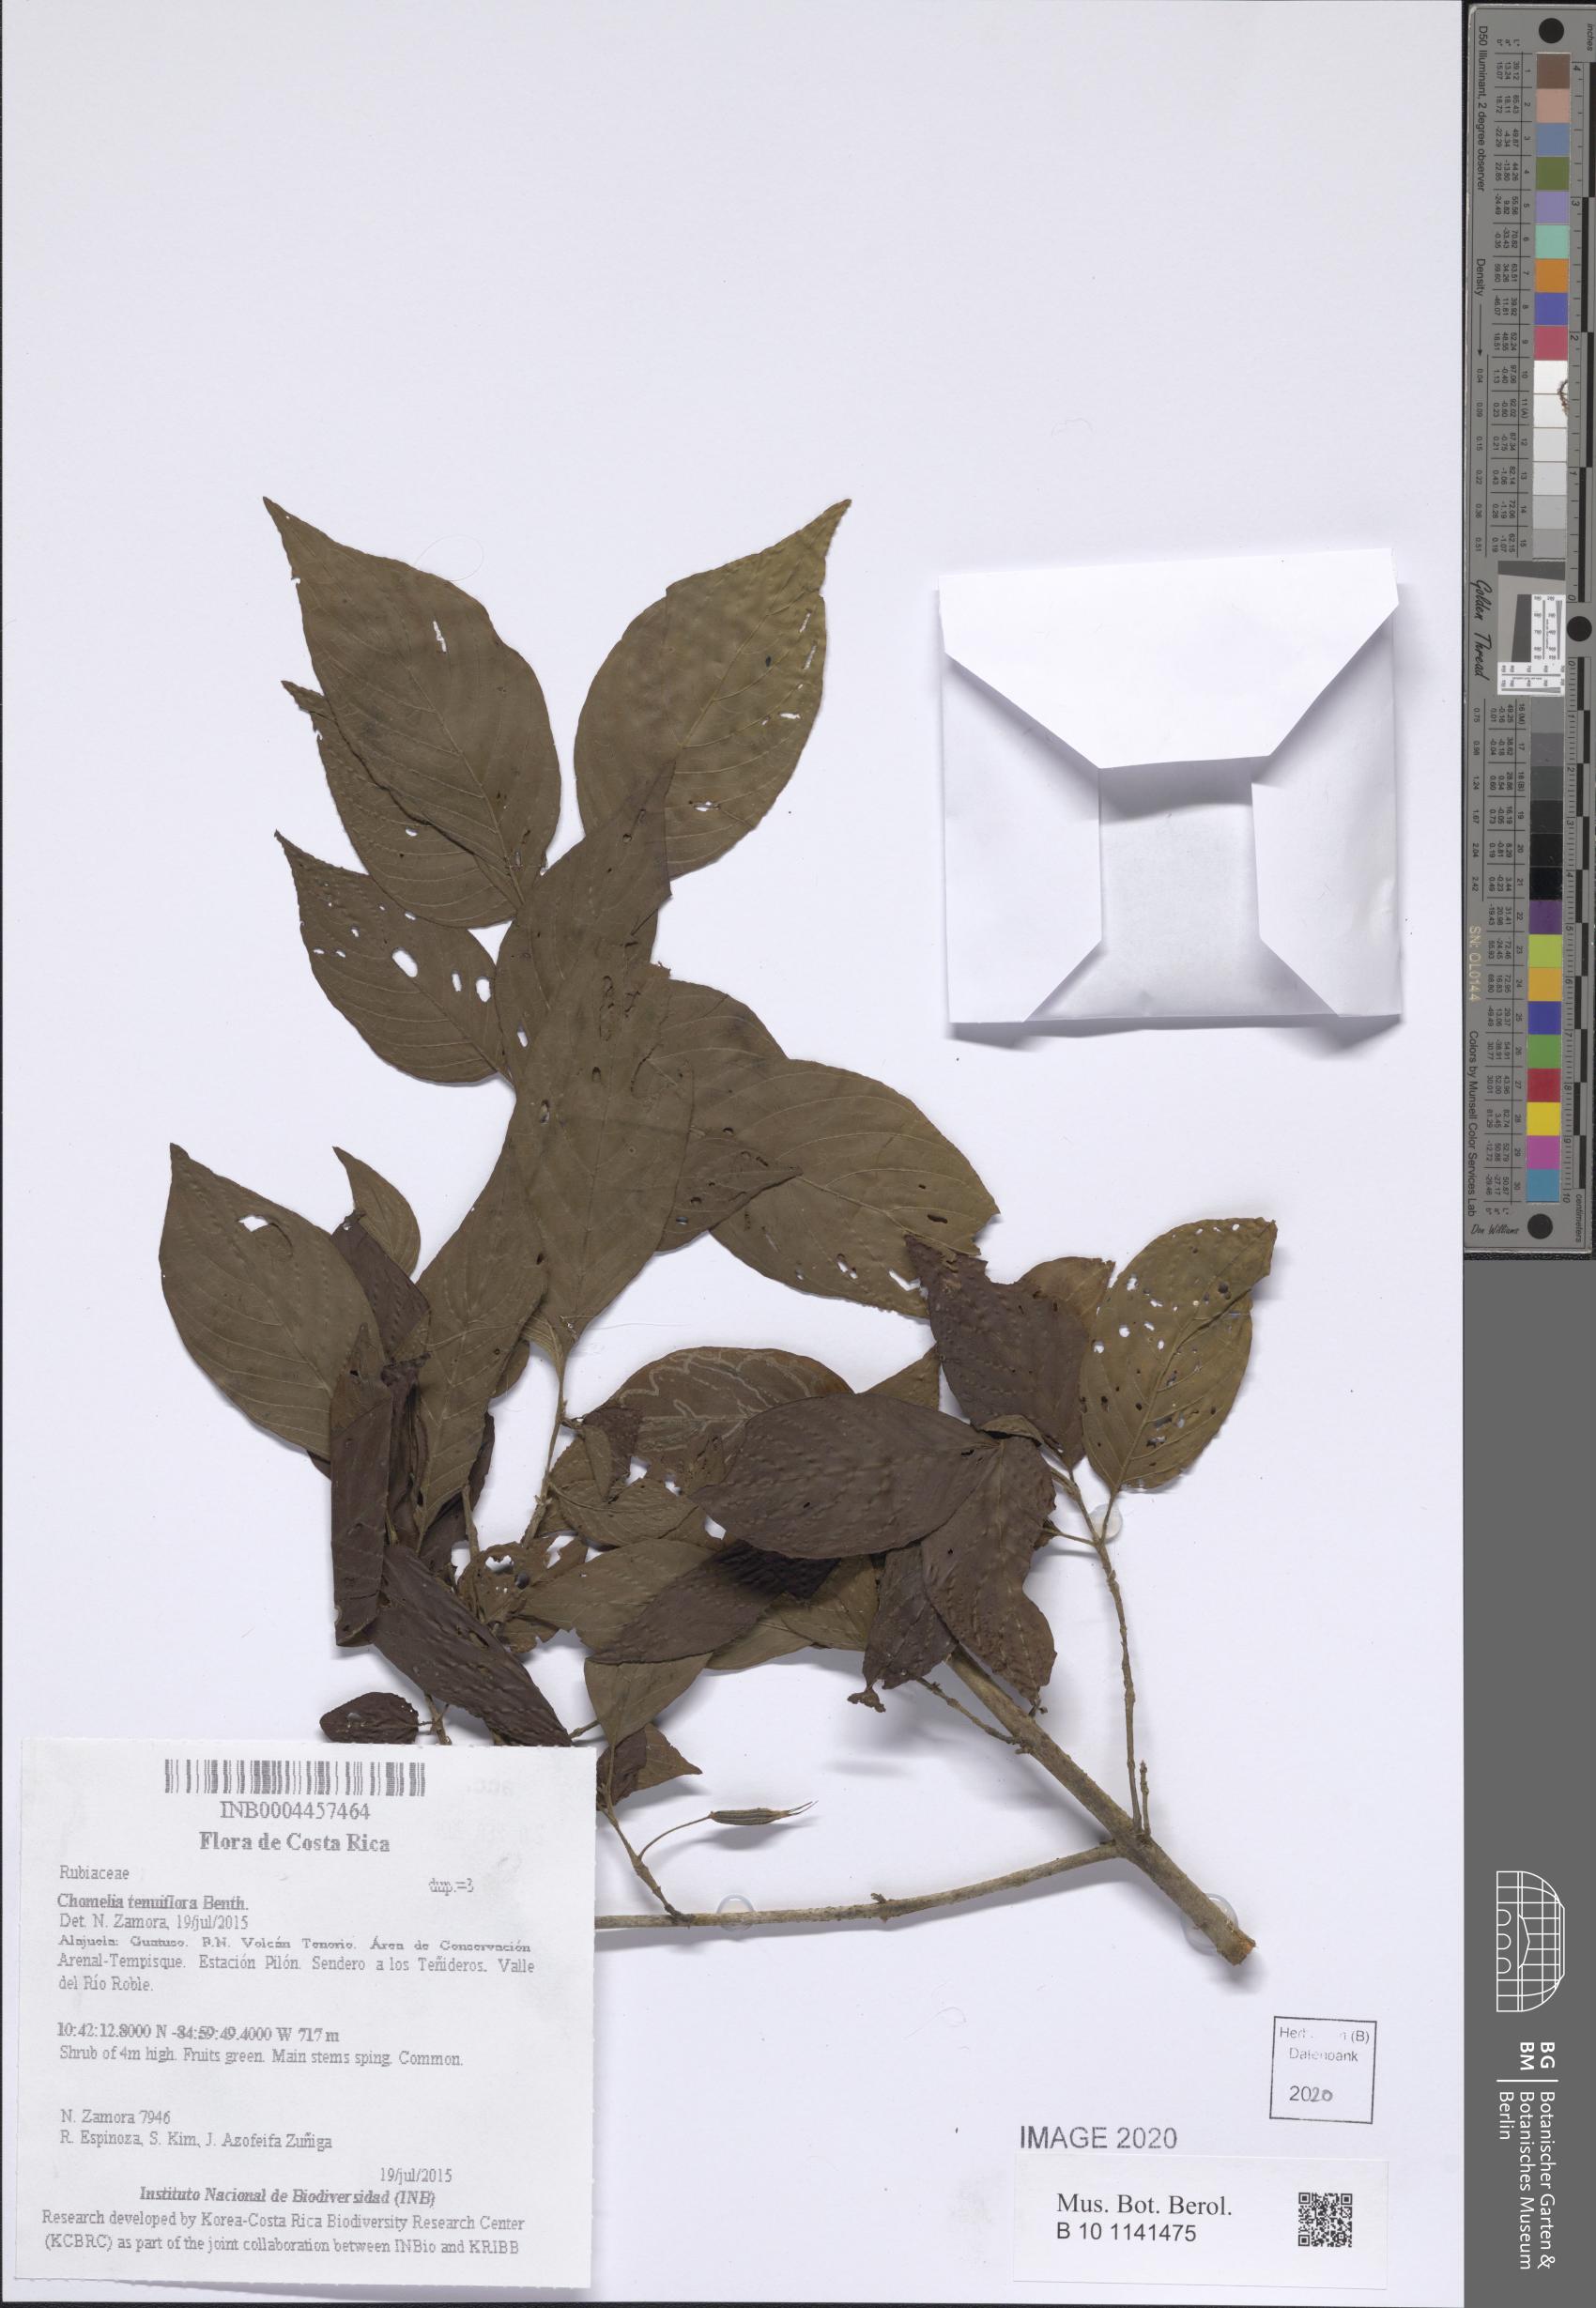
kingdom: Plantae
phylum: Tracheophyta
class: Magnoliopsida
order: Gentianales
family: Rubiaceae
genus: Chomelia
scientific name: Chomelia tenuiflora
